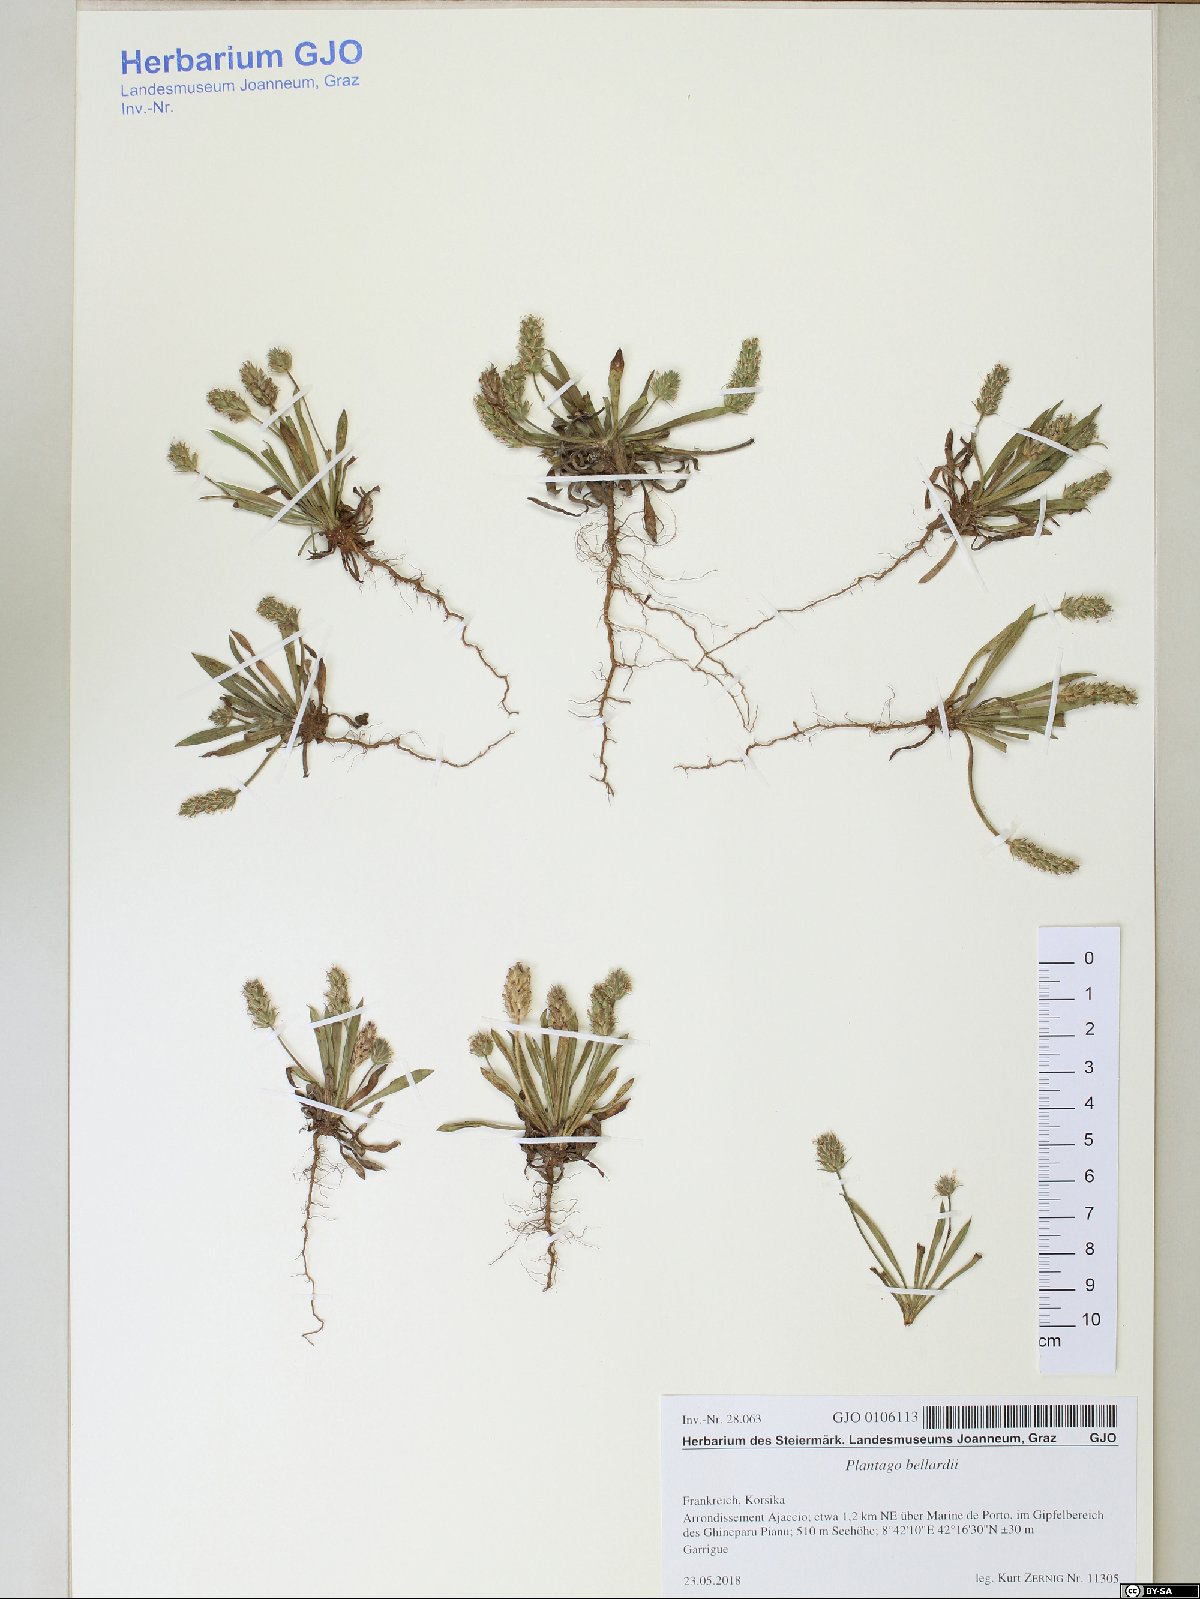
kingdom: Plantae
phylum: Tracheophyta
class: Magnoliopsida
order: Lamiales
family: Plantaginaceae
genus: Plantago
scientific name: Plantago bellardii
